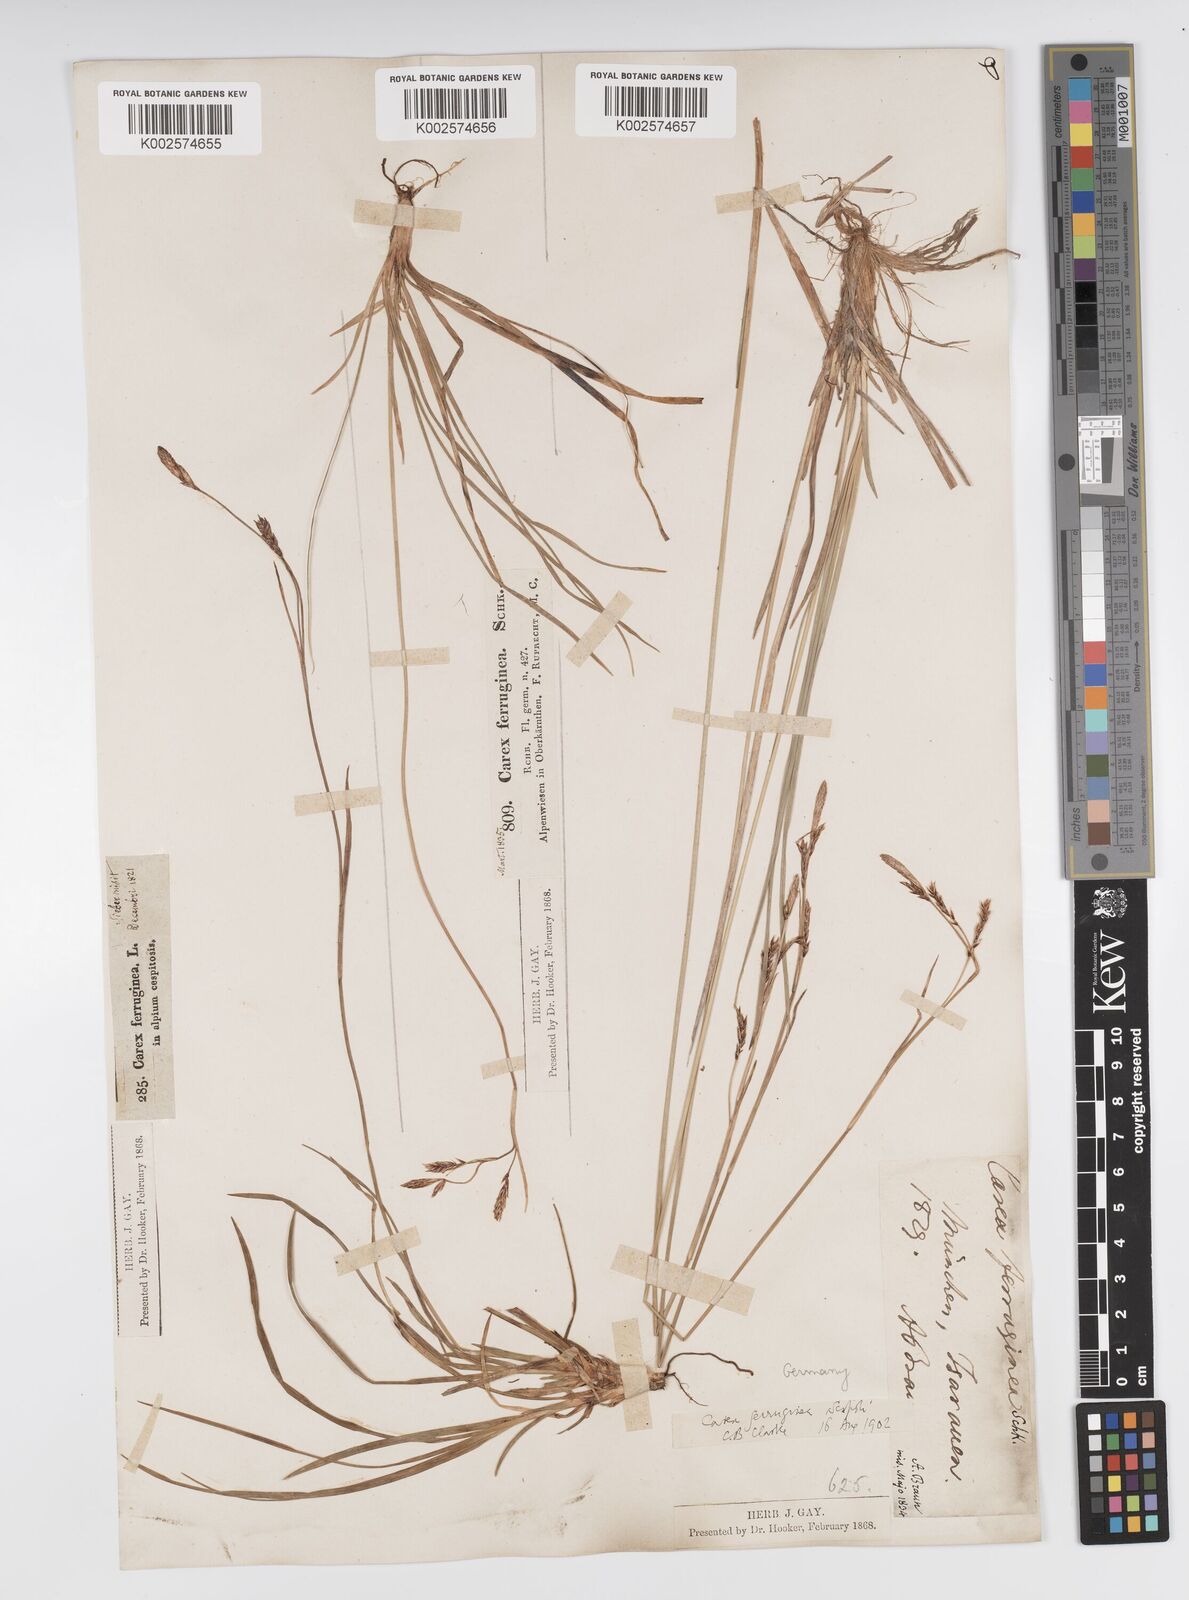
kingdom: Plantae
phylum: Tracheophyta
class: Liliopsida
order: Poales
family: Cyperaceae
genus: Carex
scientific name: Carex ferruginea
